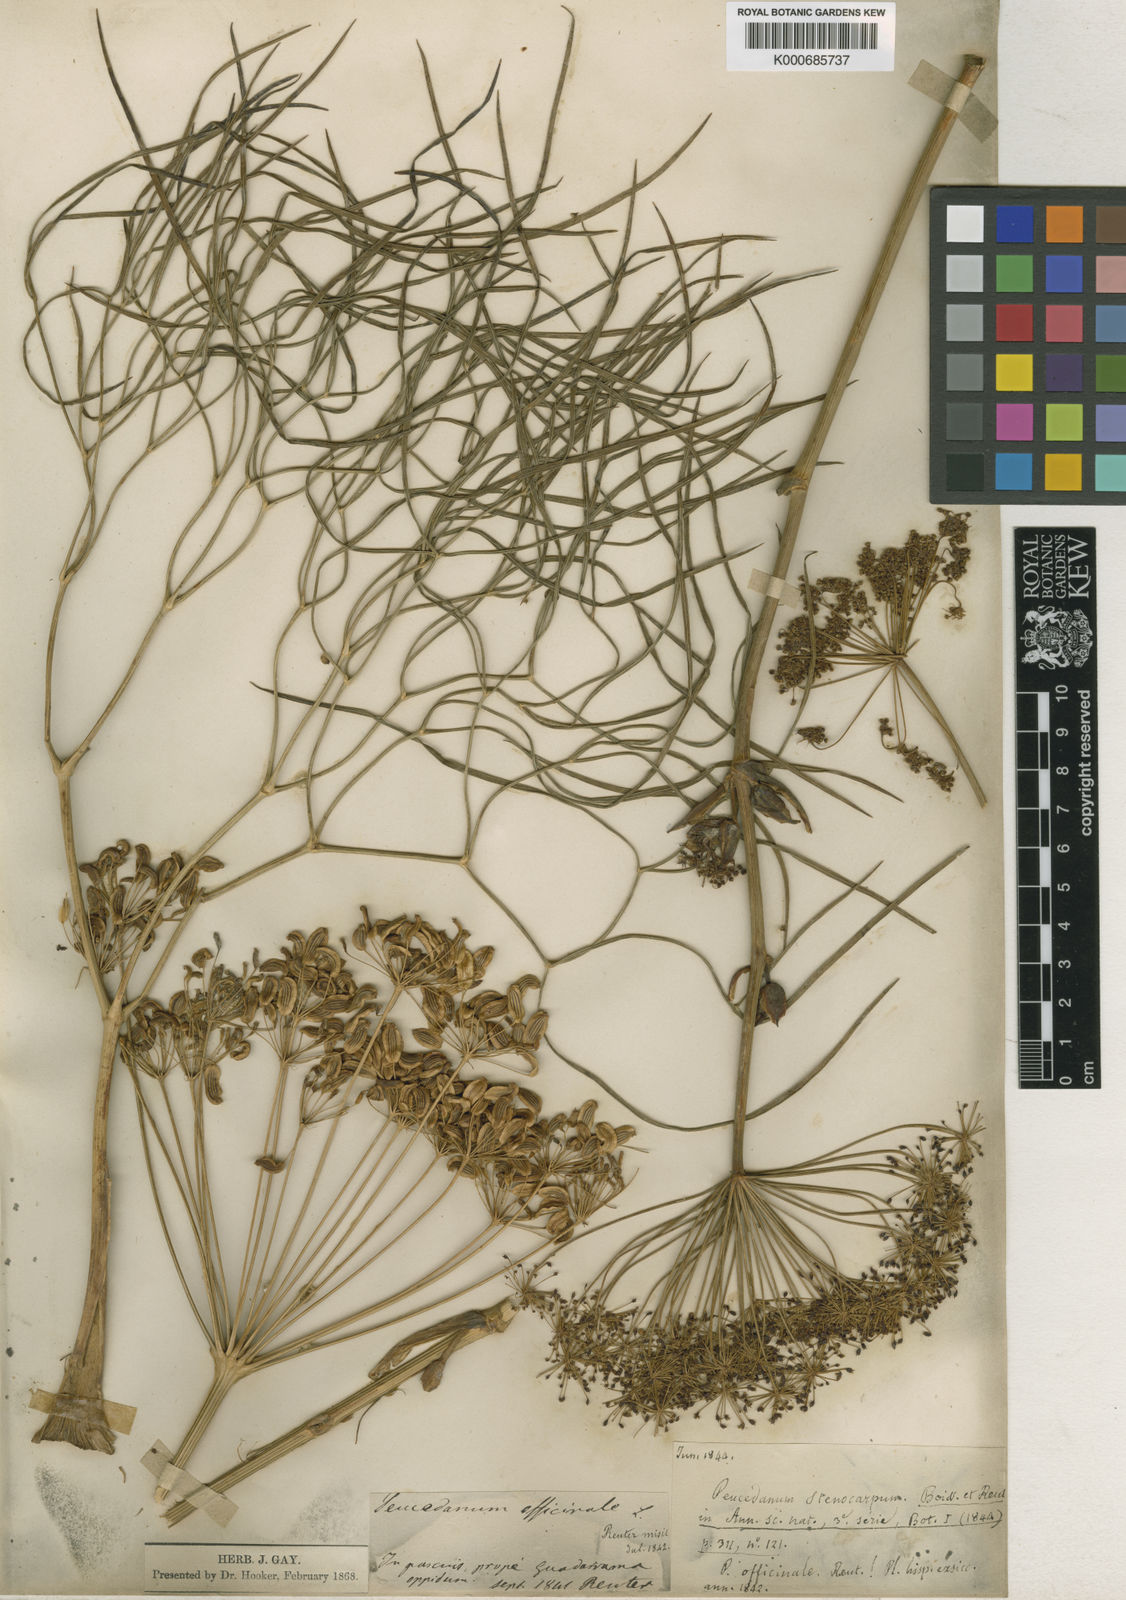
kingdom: Plantae
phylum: Tracheophyta
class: Magnoliopsida
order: Apiales
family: Apiaceae
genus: Peucedanum
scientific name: Peucedanum officinale
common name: Sulphurweed
